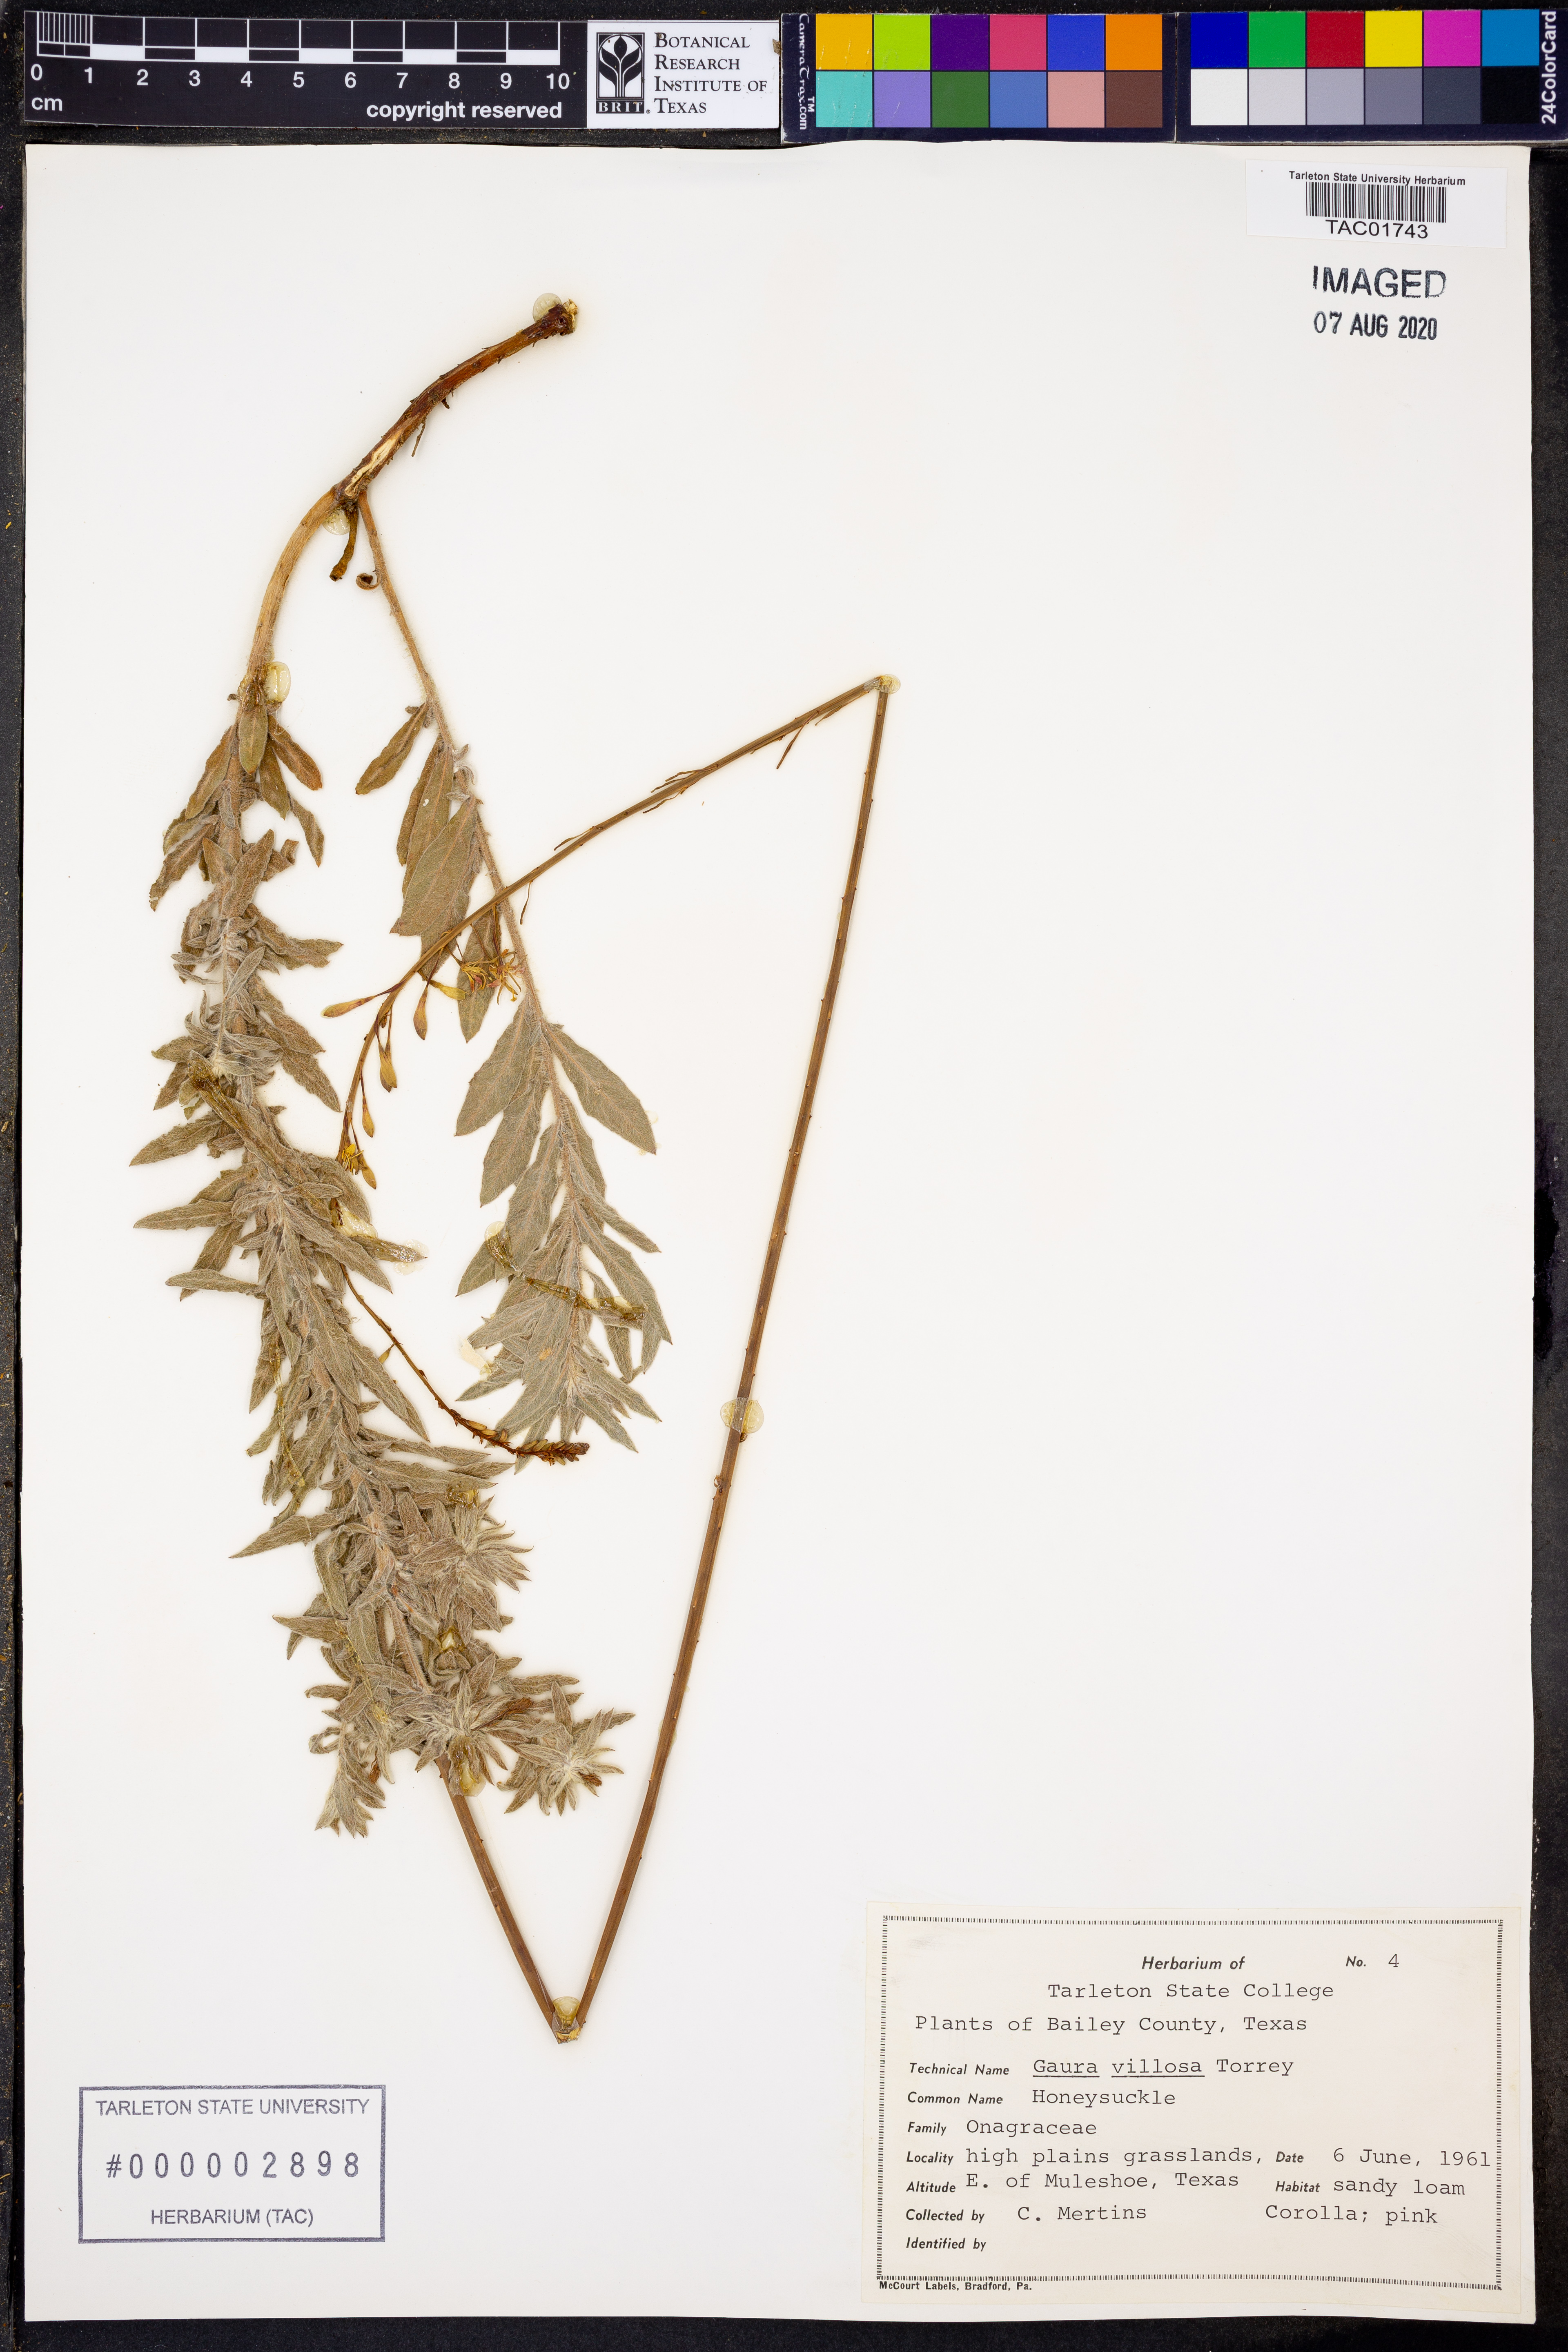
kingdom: Plantae
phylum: Tracheophyta
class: Magnoliopsida
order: Myrtales
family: Onagraceae
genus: Oenothera
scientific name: Oenothera cinerea
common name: Woolly beeblossom
